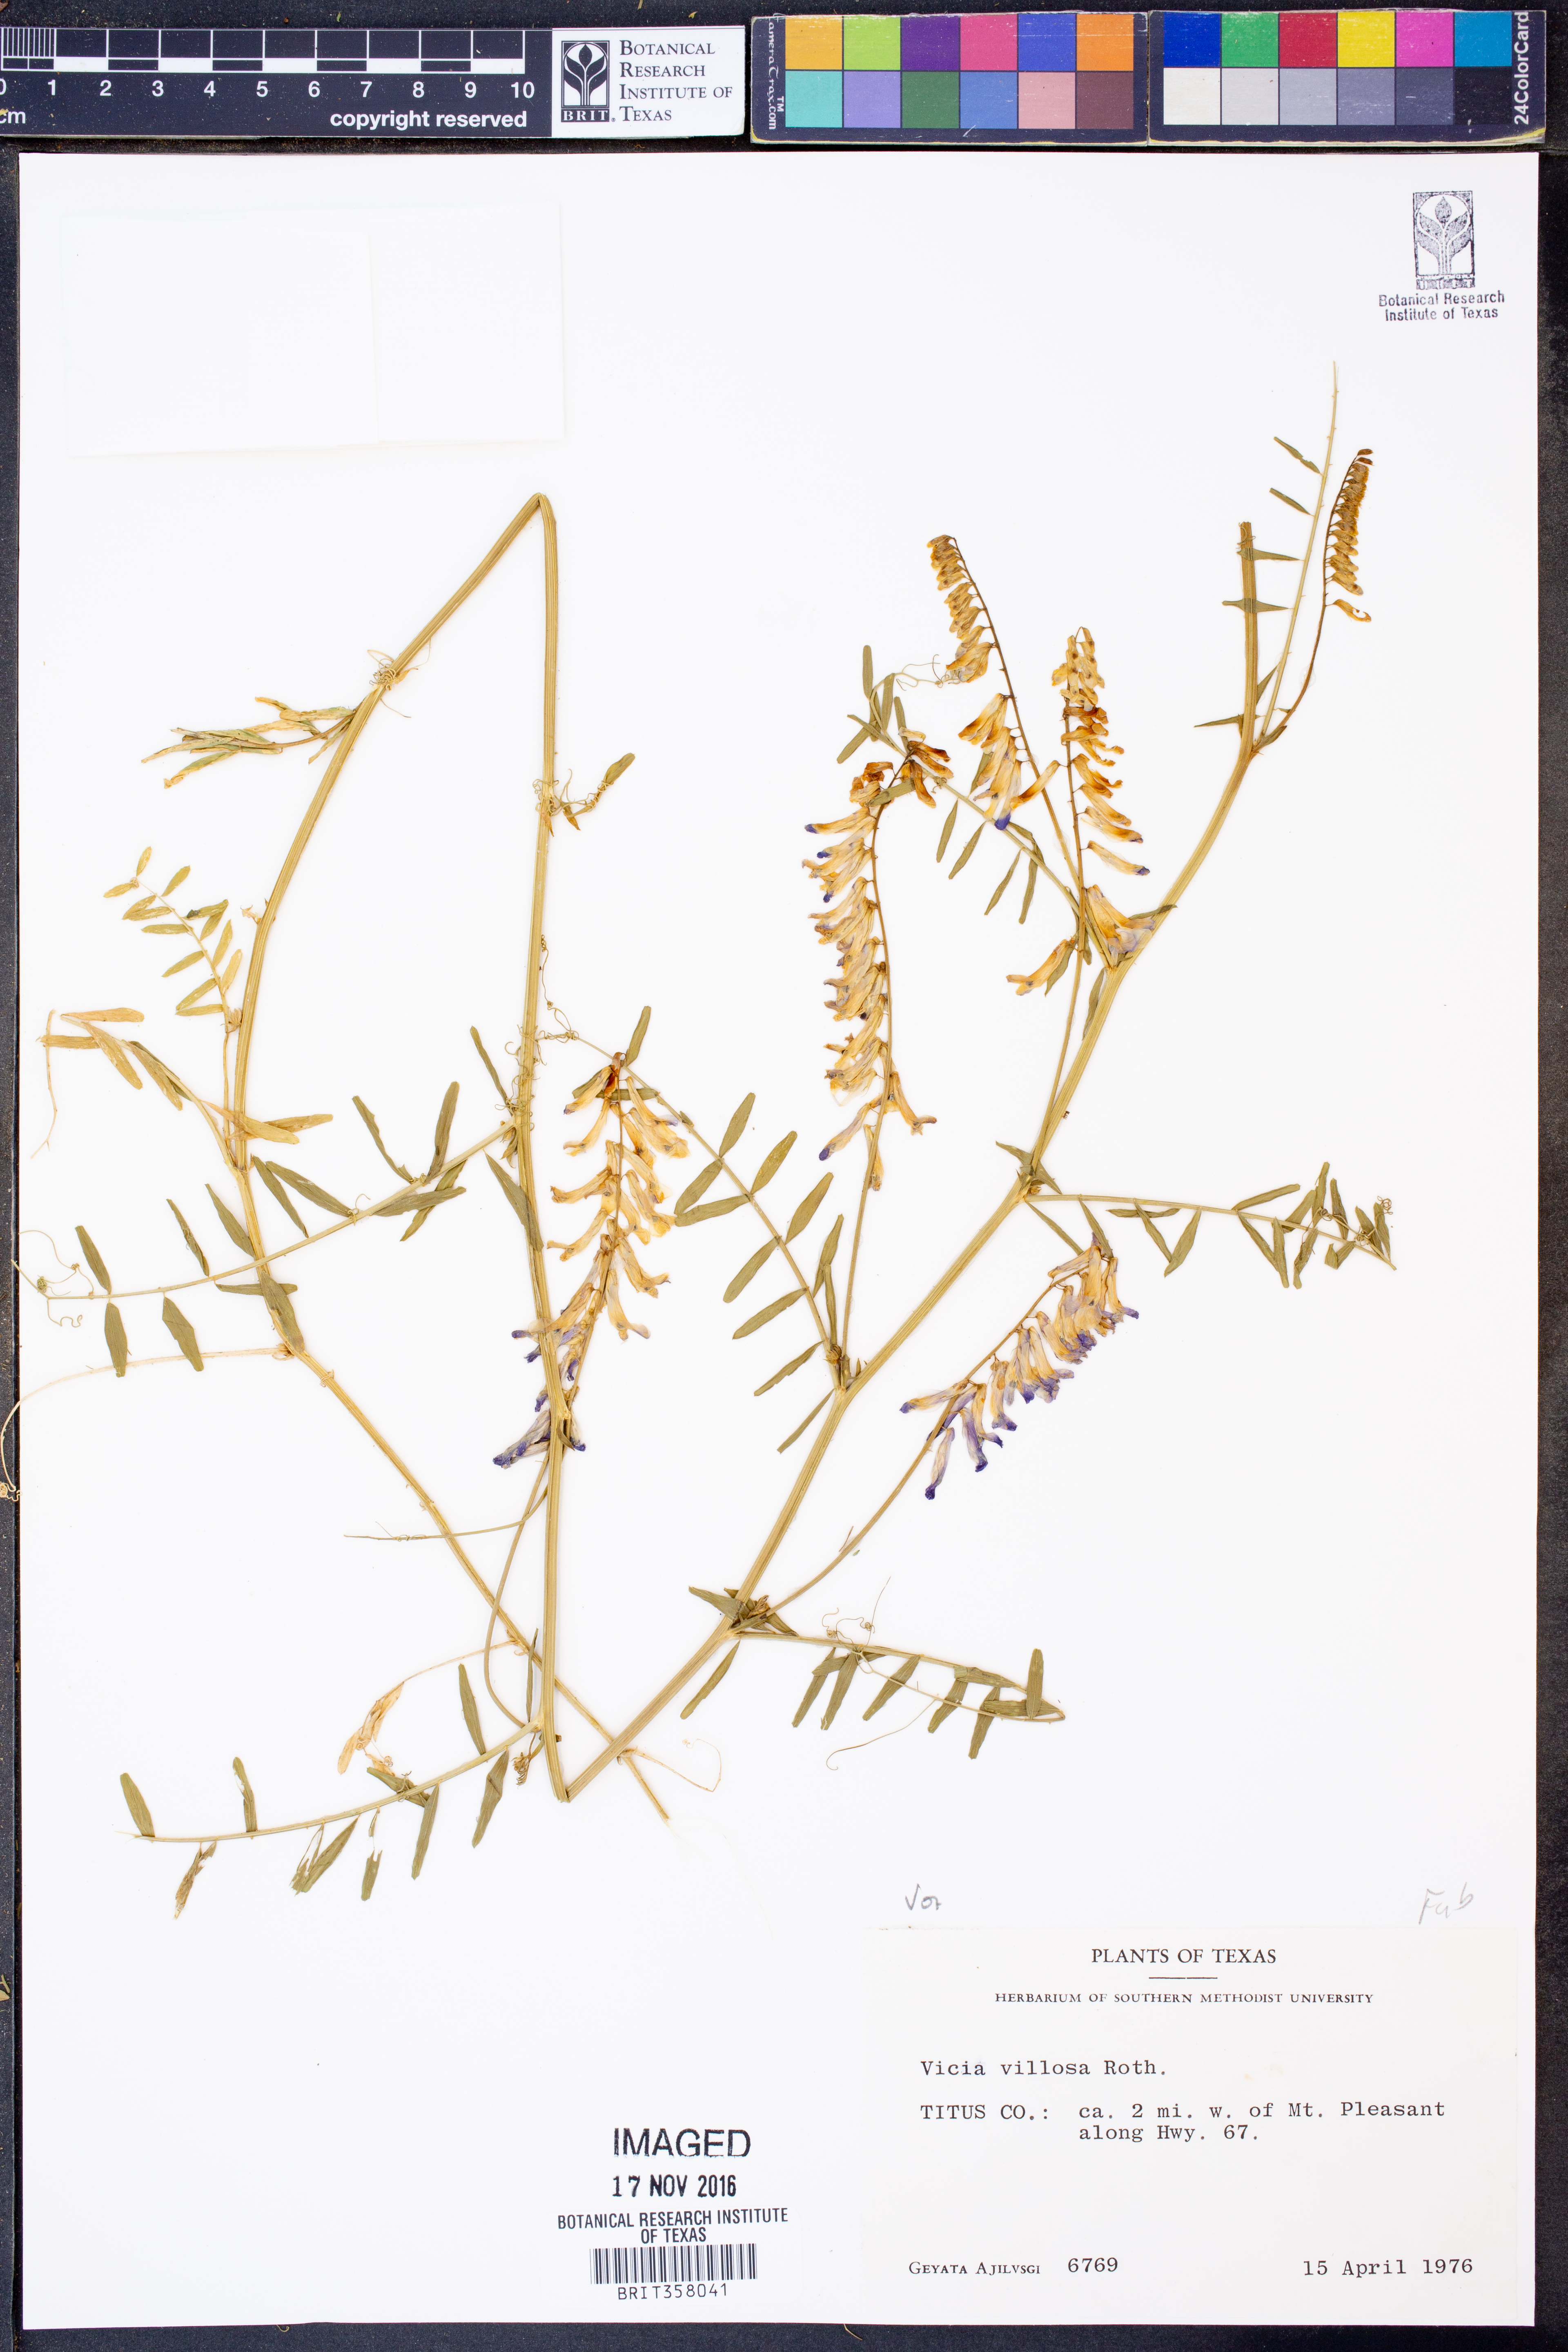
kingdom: Plantae
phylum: Tracheophyta
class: Magnoliopsida
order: Fabales
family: Fabaceae
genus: Vicia
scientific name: Vicia villosa
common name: Fodder vetch
